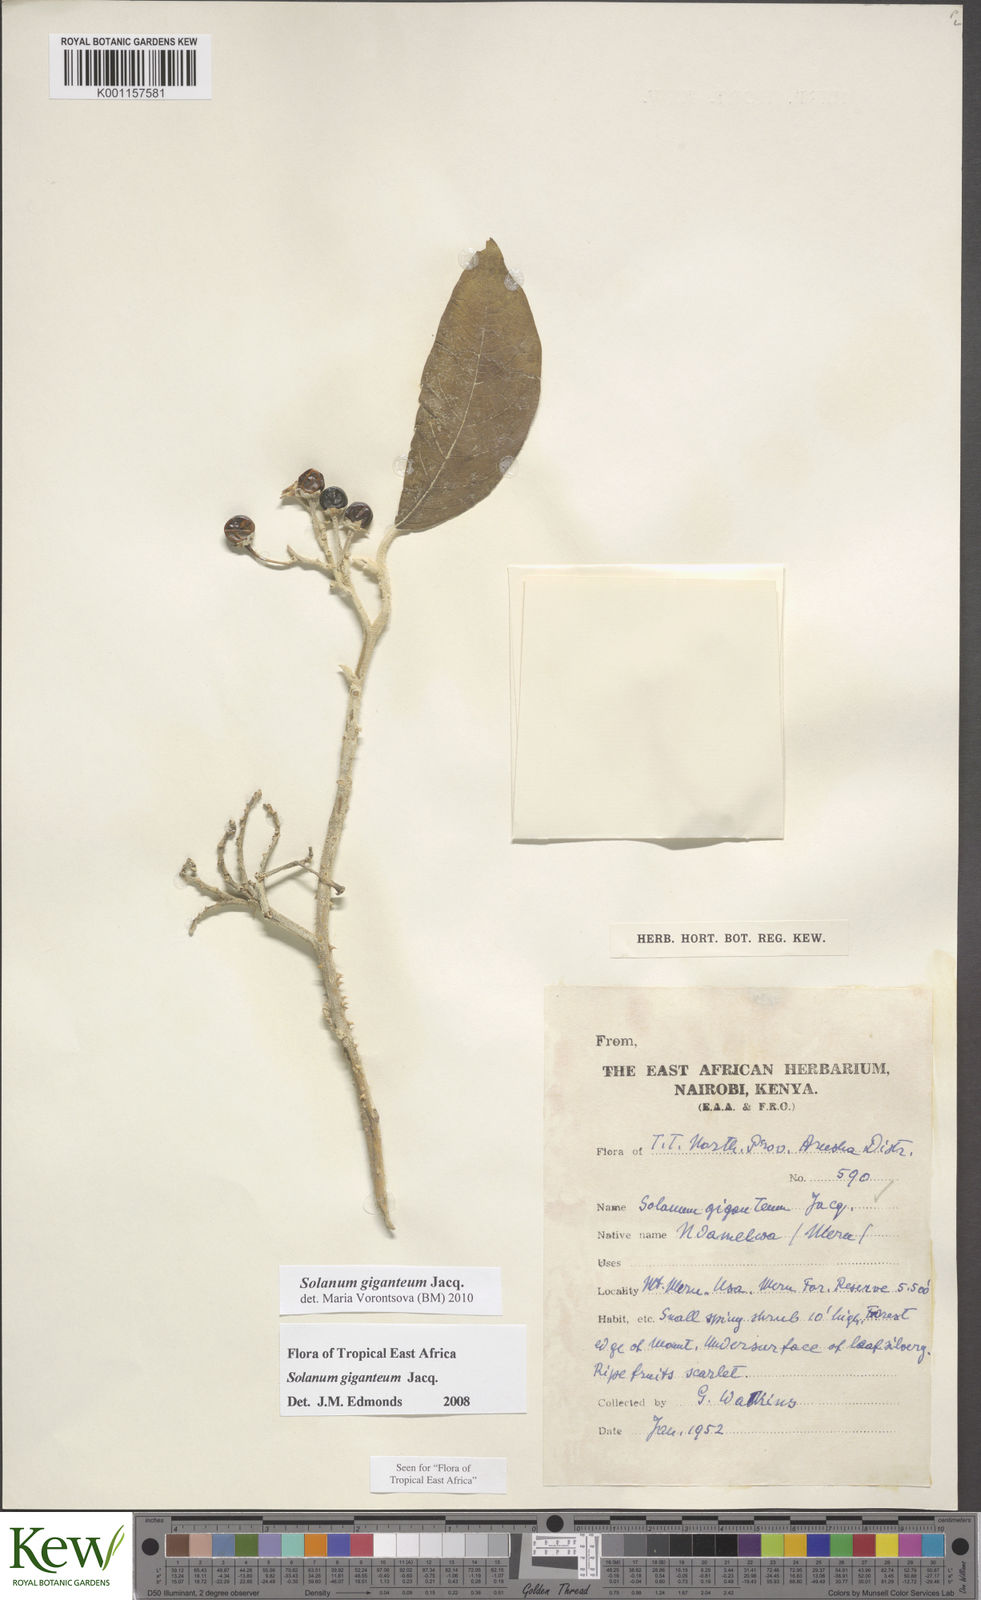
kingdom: Plantae
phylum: Tracheophyta
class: Magnoliopsida
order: Solanales
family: Solanaceae
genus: Solanum
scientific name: Solanum giganteum
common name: Healing-leaf-tree
